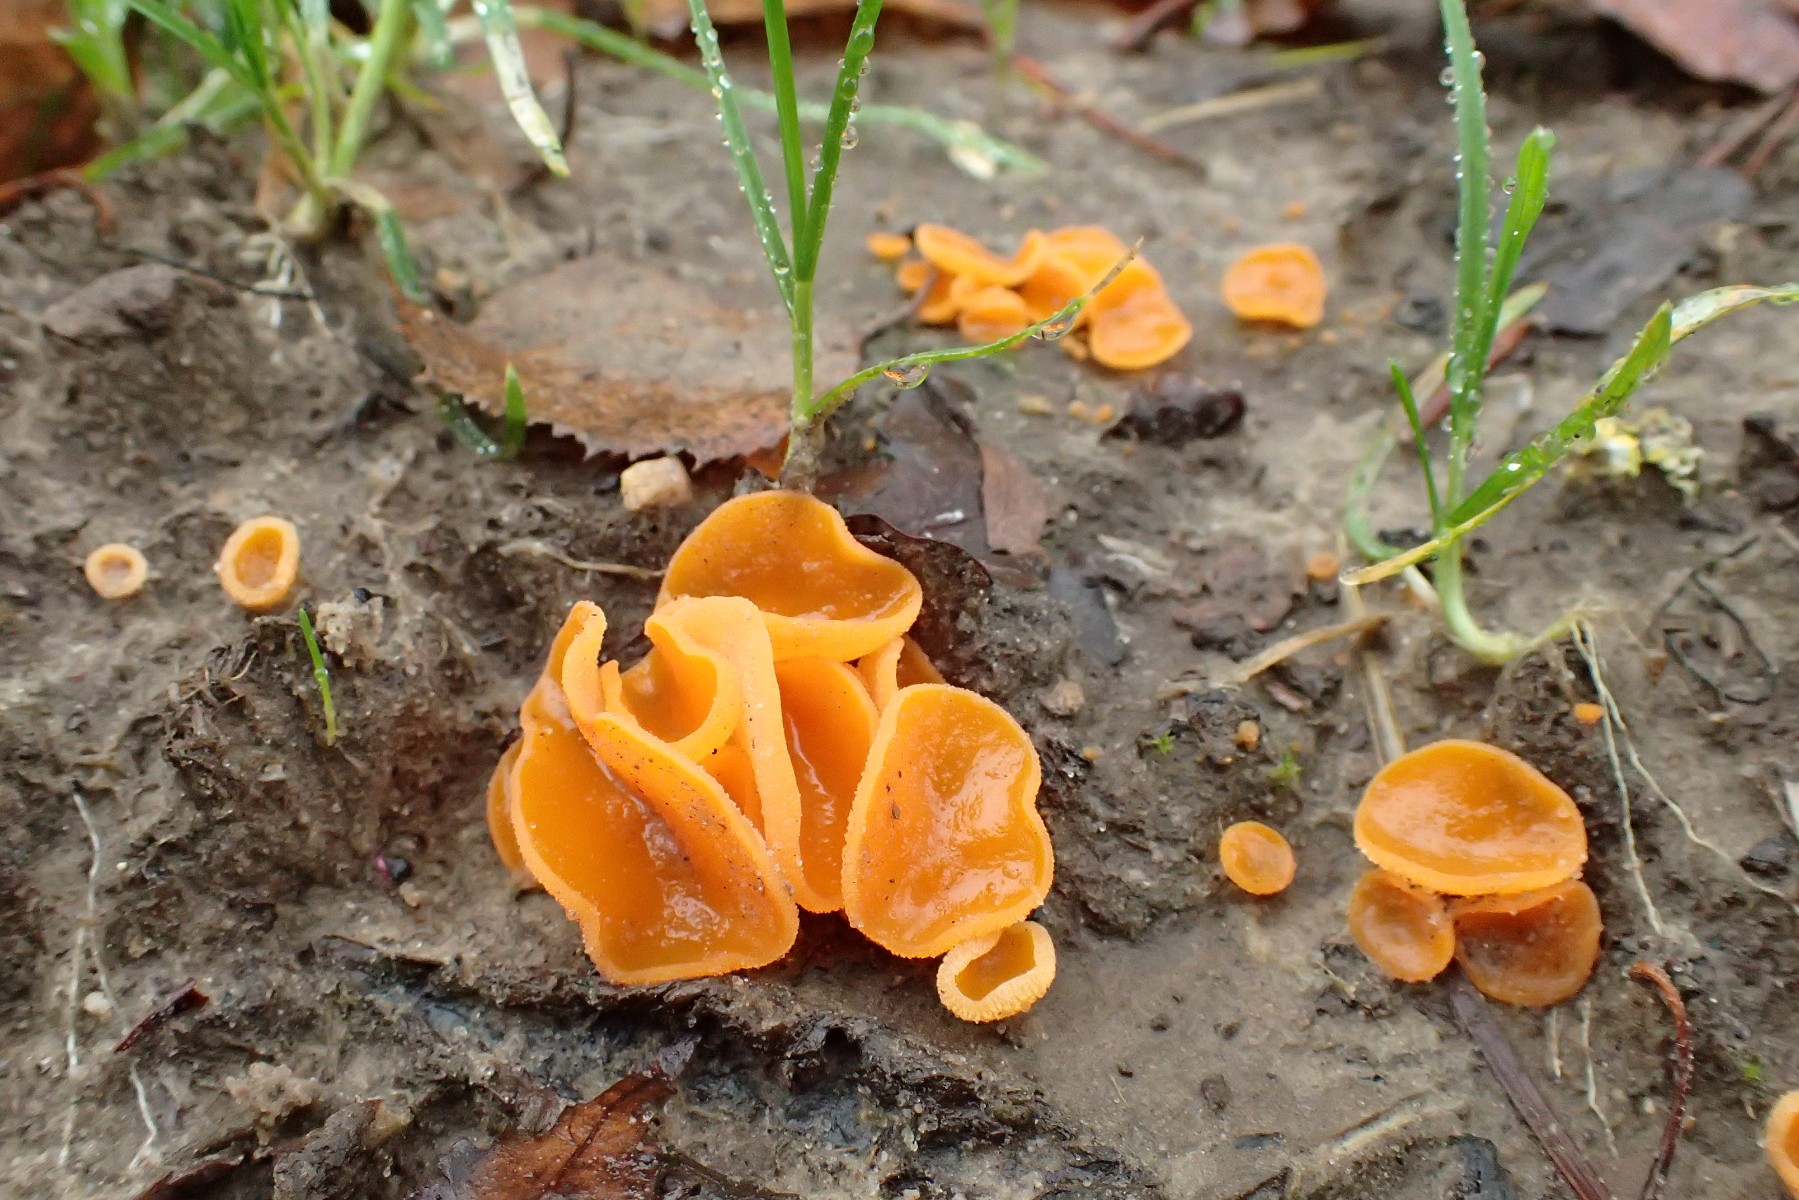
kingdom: Fungi
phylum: Ascomycota
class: Pezizomycetes
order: Pezizales
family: Pyronemataceae
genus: Aleuria
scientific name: Aleuria aurantia
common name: almindelig orangebæger
